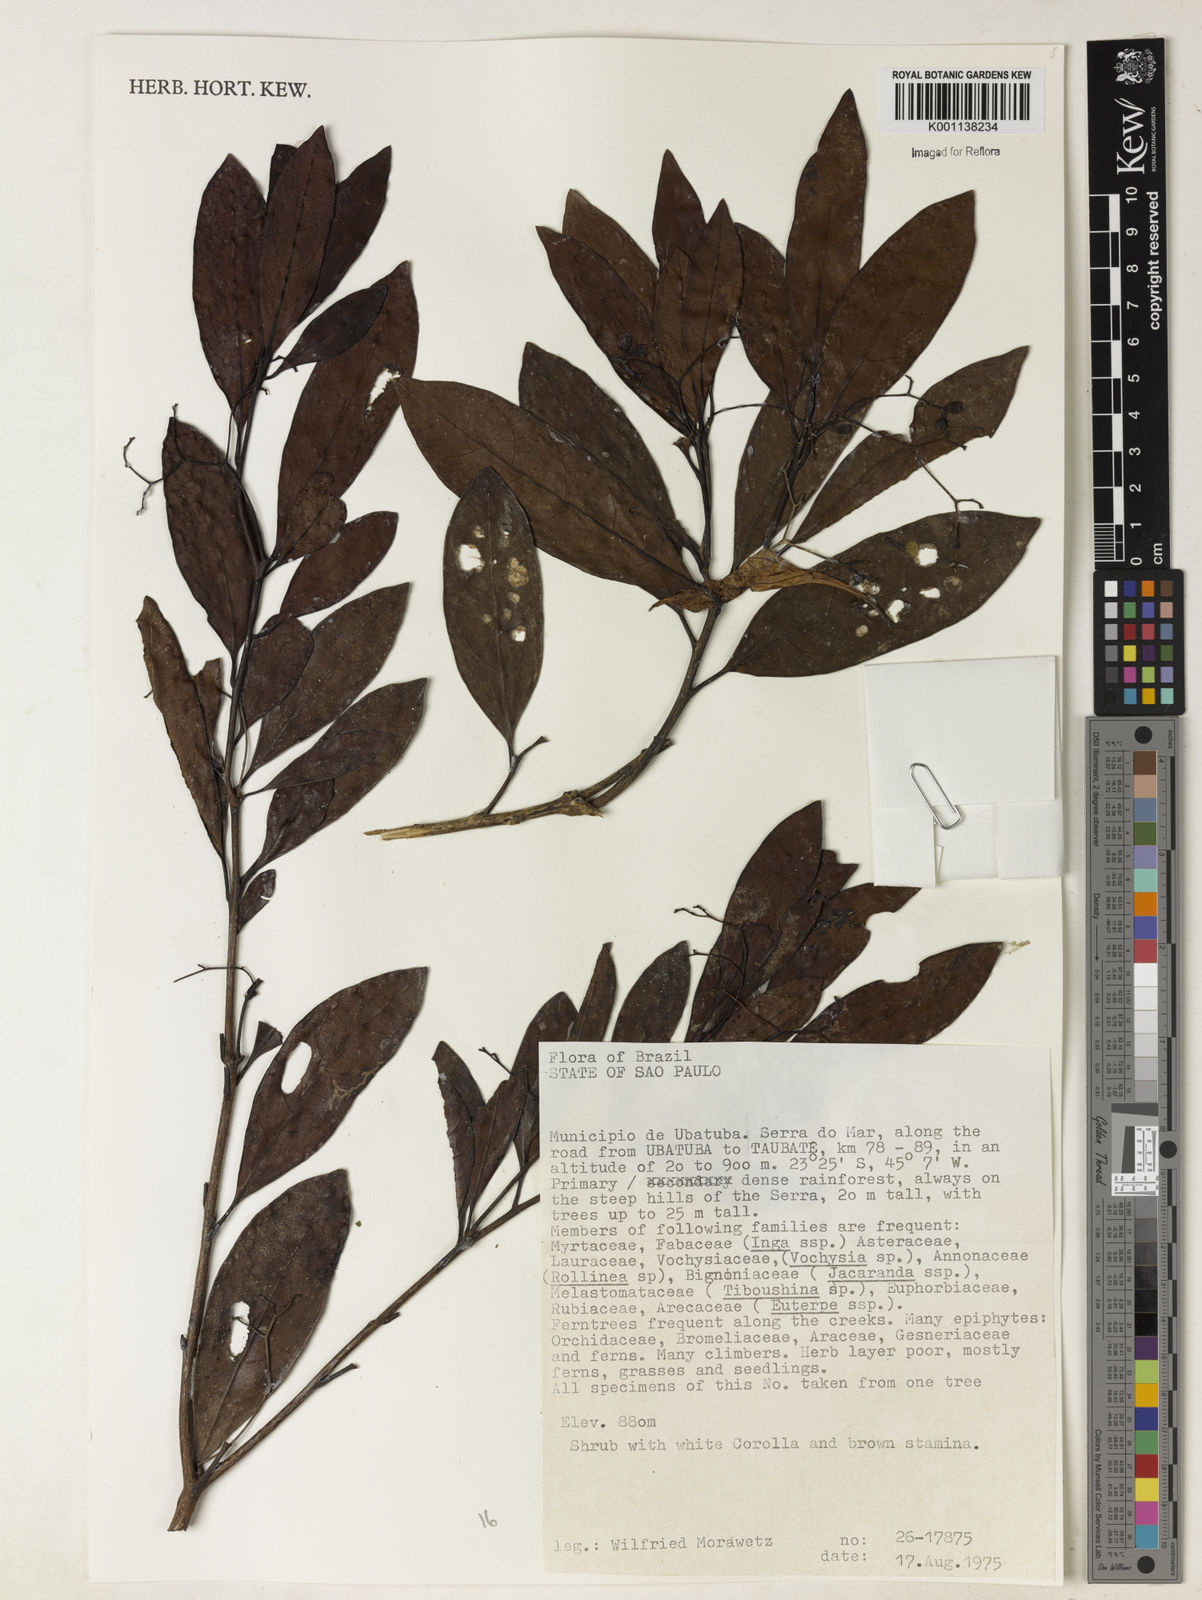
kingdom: Plantae
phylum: Tracheophyta
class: Magnoliopsida
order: Boraginales
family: Cordiaceae
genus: Cordia
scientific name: Cordia
